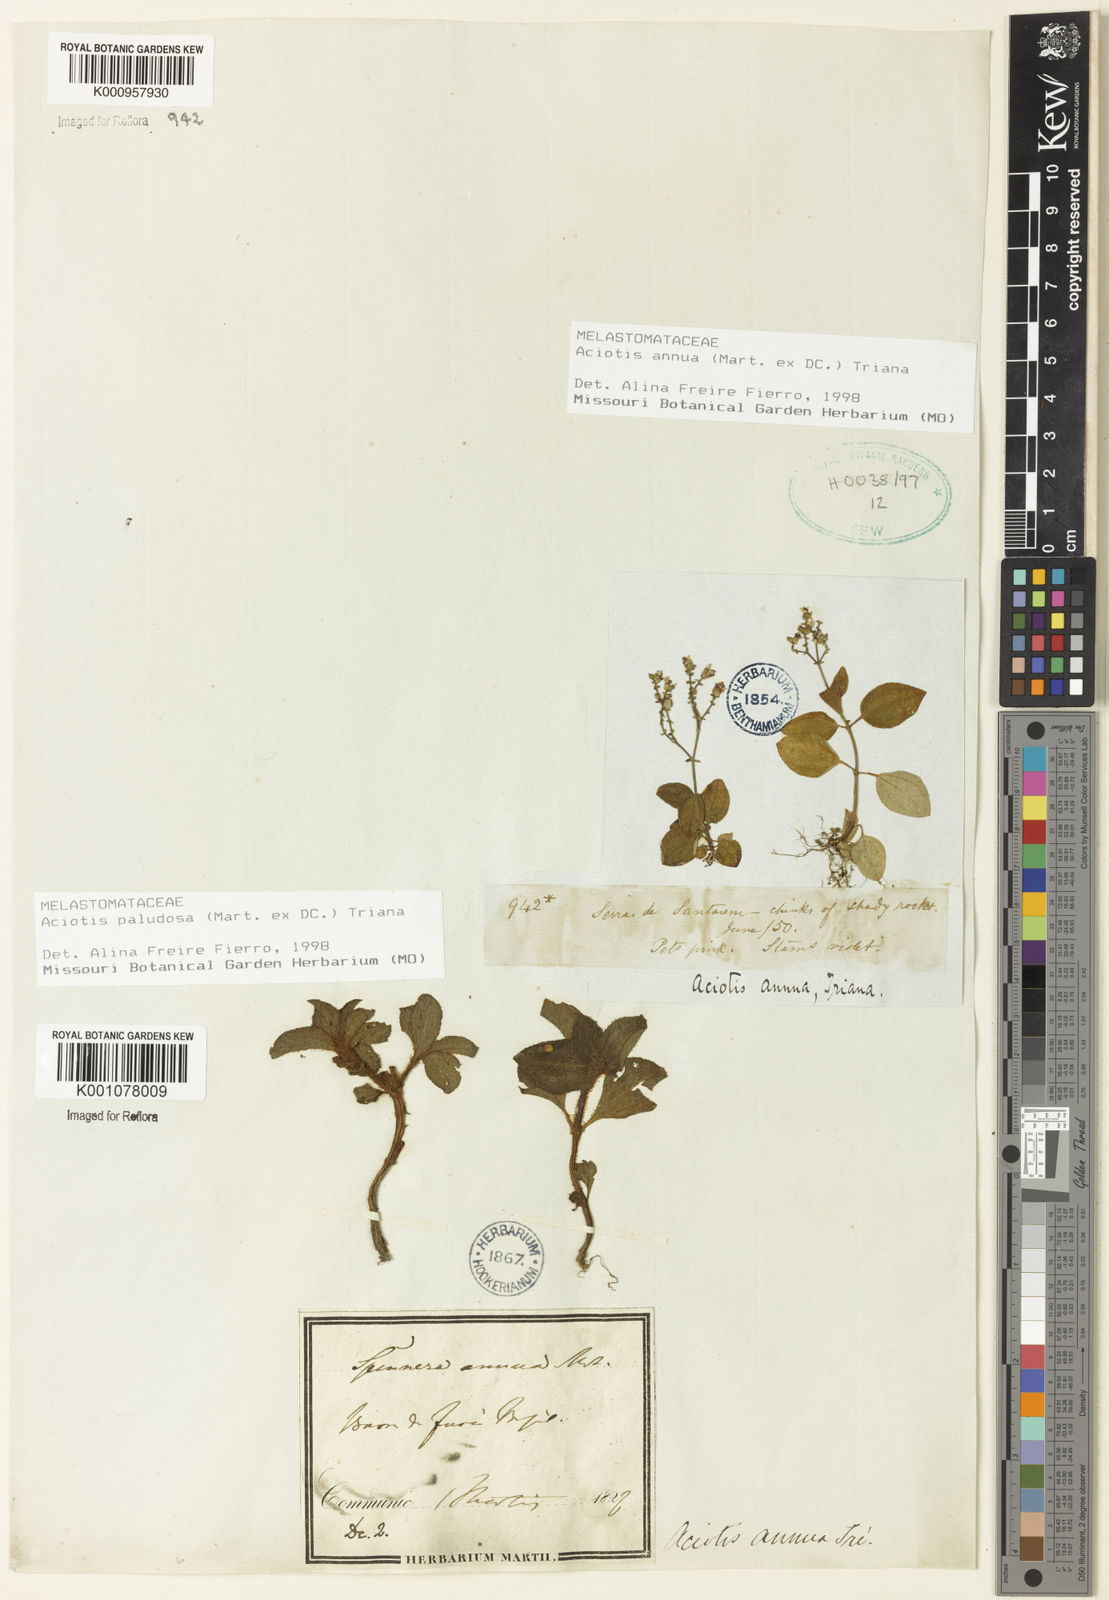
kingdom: Plantae
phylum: Tracheophyta
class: Magnoliopsida
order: Myrtales
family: Melastomataceae
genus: Aciotis
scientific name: Aciotis paludosa
